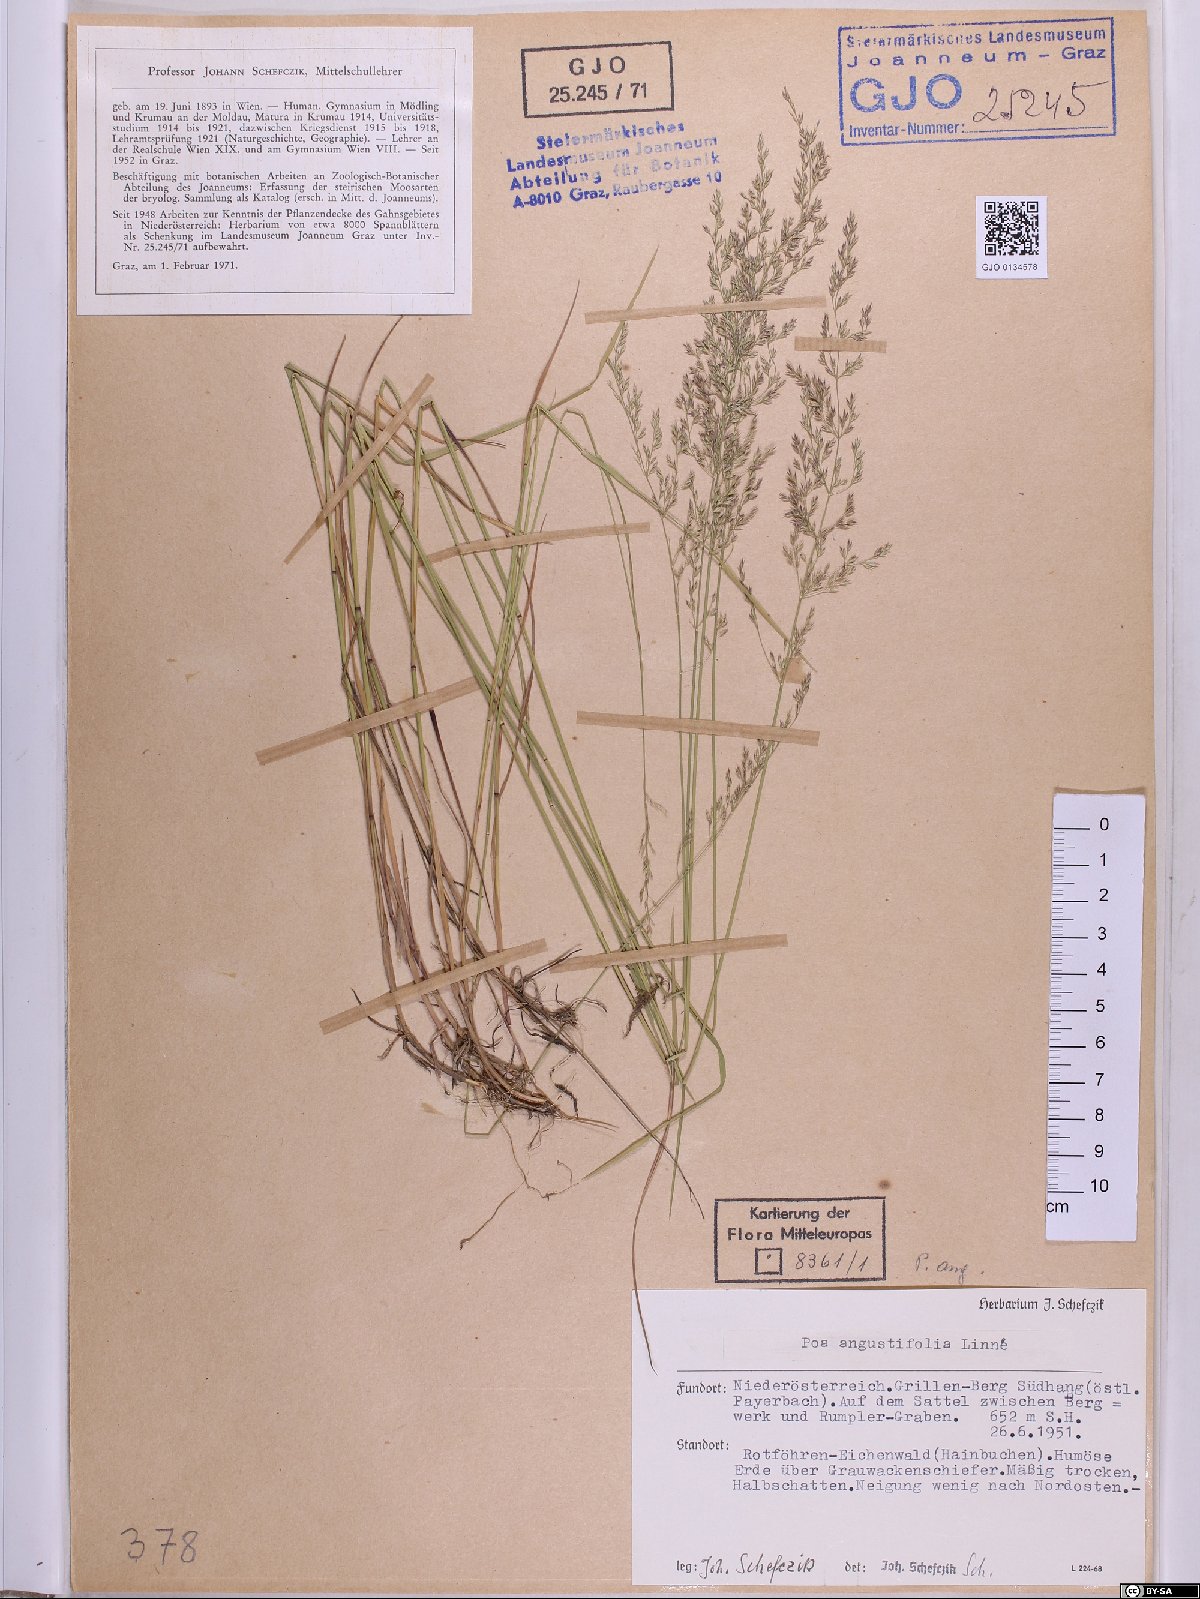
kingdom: Plantae
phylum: Tracheophyta
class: Liliopsida
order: Poales
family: Poaceae
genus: Poa
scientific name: Poa angustifolia
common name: Narrow-leaved meadow-grass
